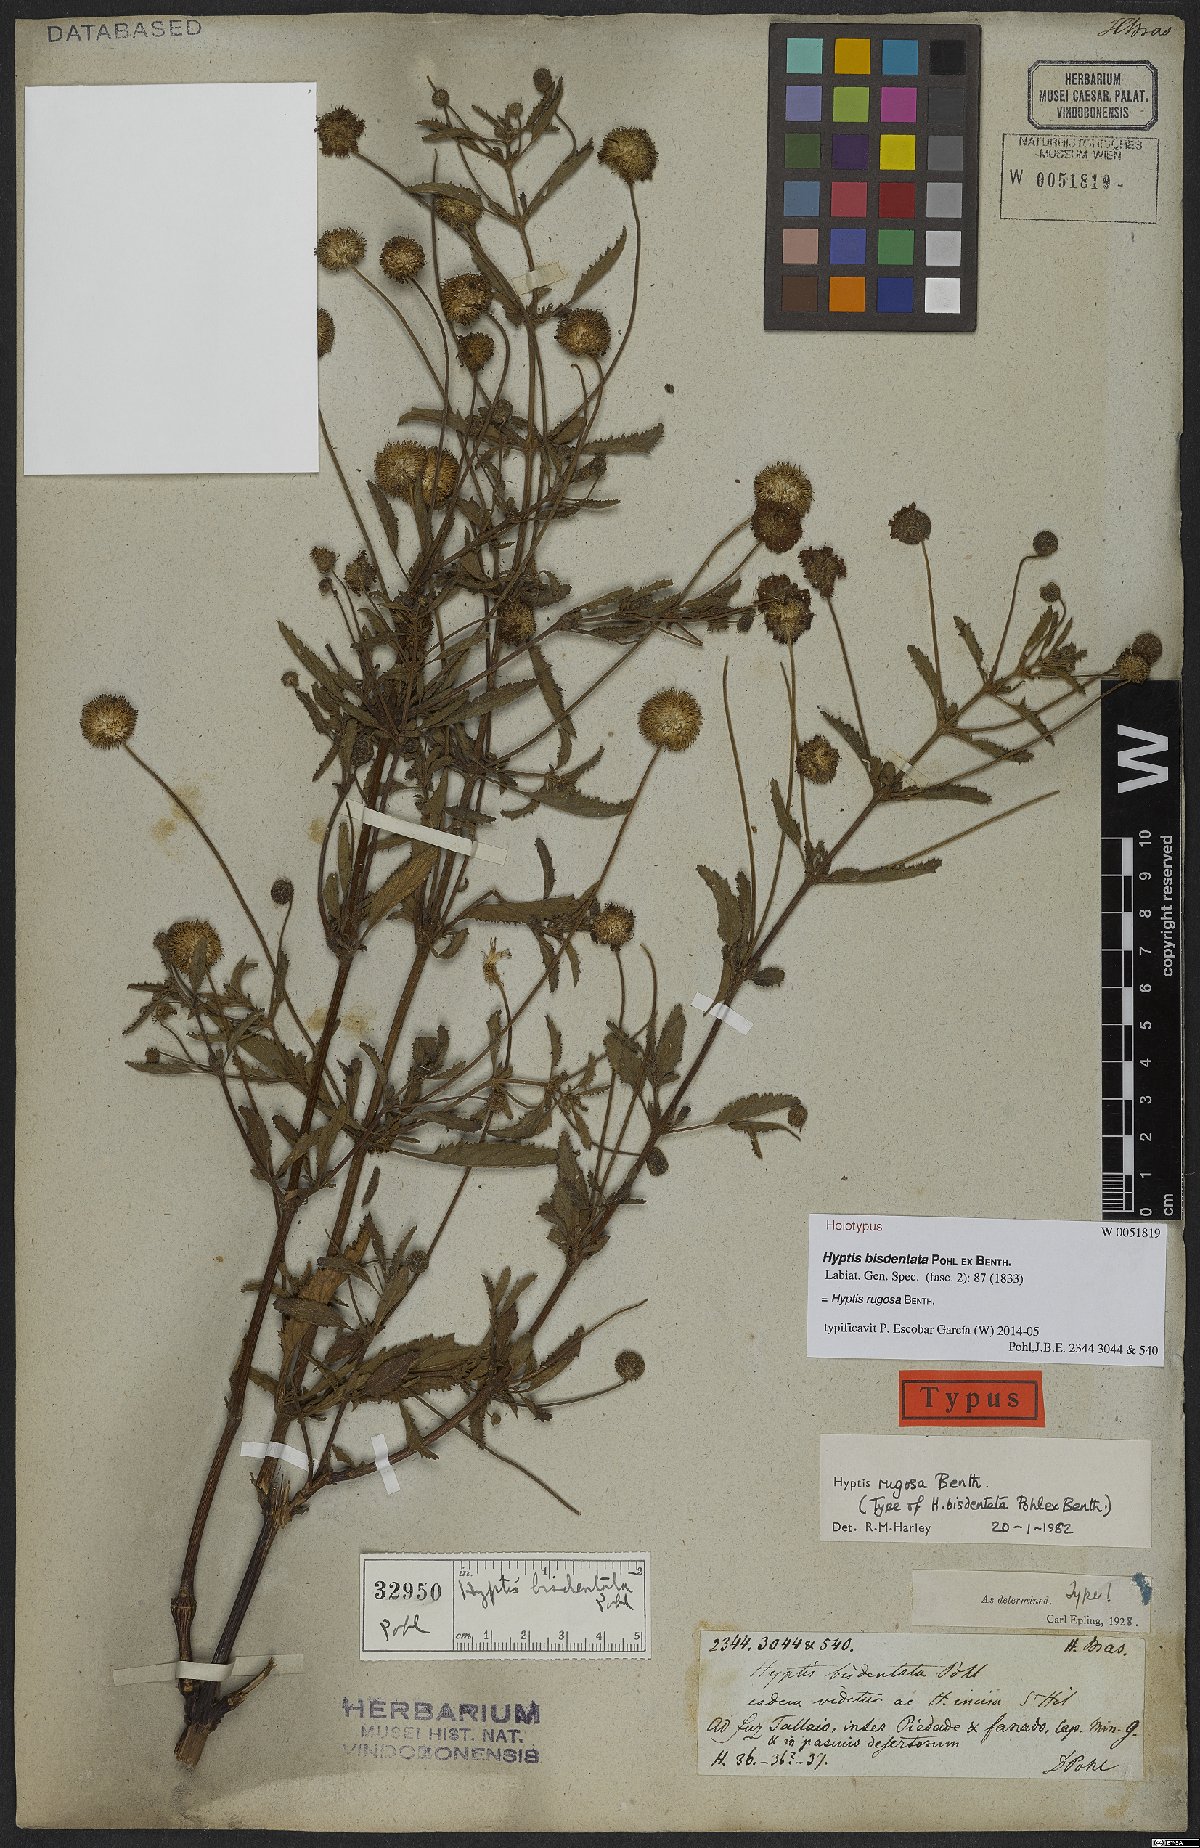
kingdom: Plantae
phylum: Tracheophyta
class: Magnoliopsida
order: Lamiales
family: Lamiaceae
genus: Cyanocephalus
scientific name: Cyanocephalus rugosus
